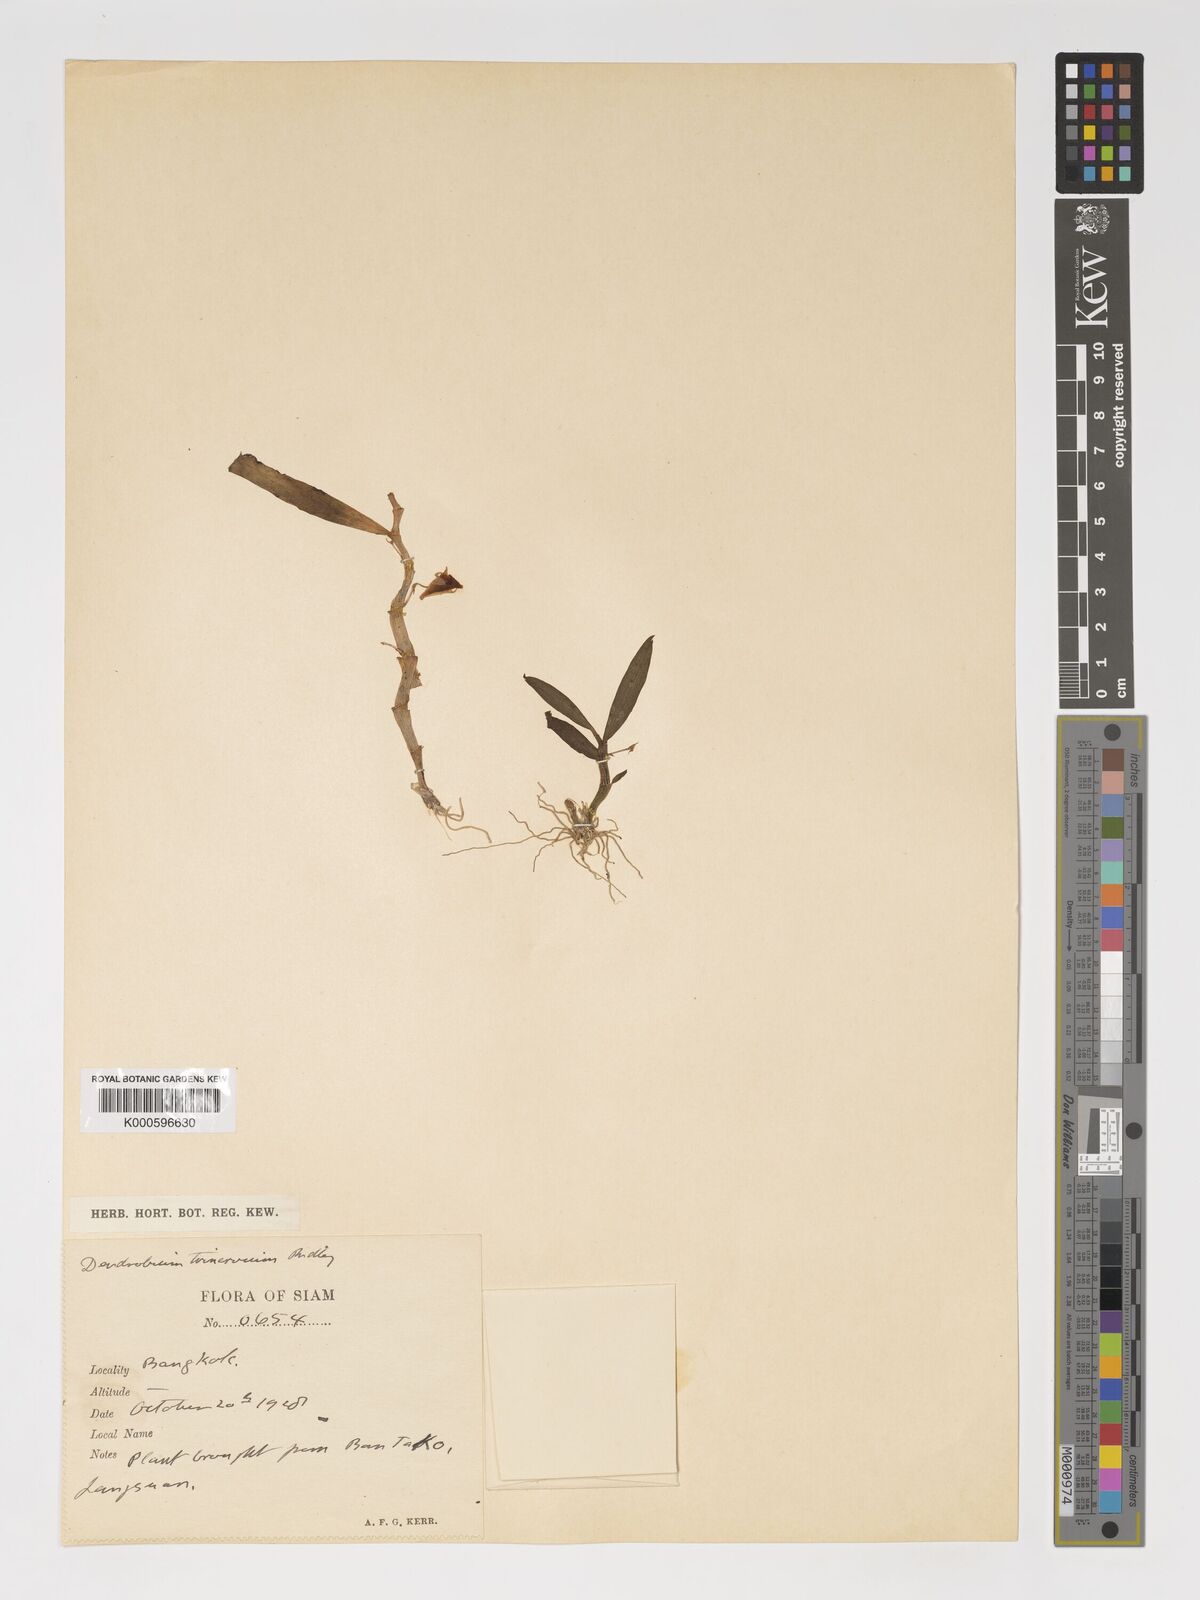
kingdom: Plantae
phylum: Tracheophyta
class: Liliopsida
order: Asparagales
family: Orchidaceae
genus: Dendrobium
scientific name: Dendrobium trinervium
